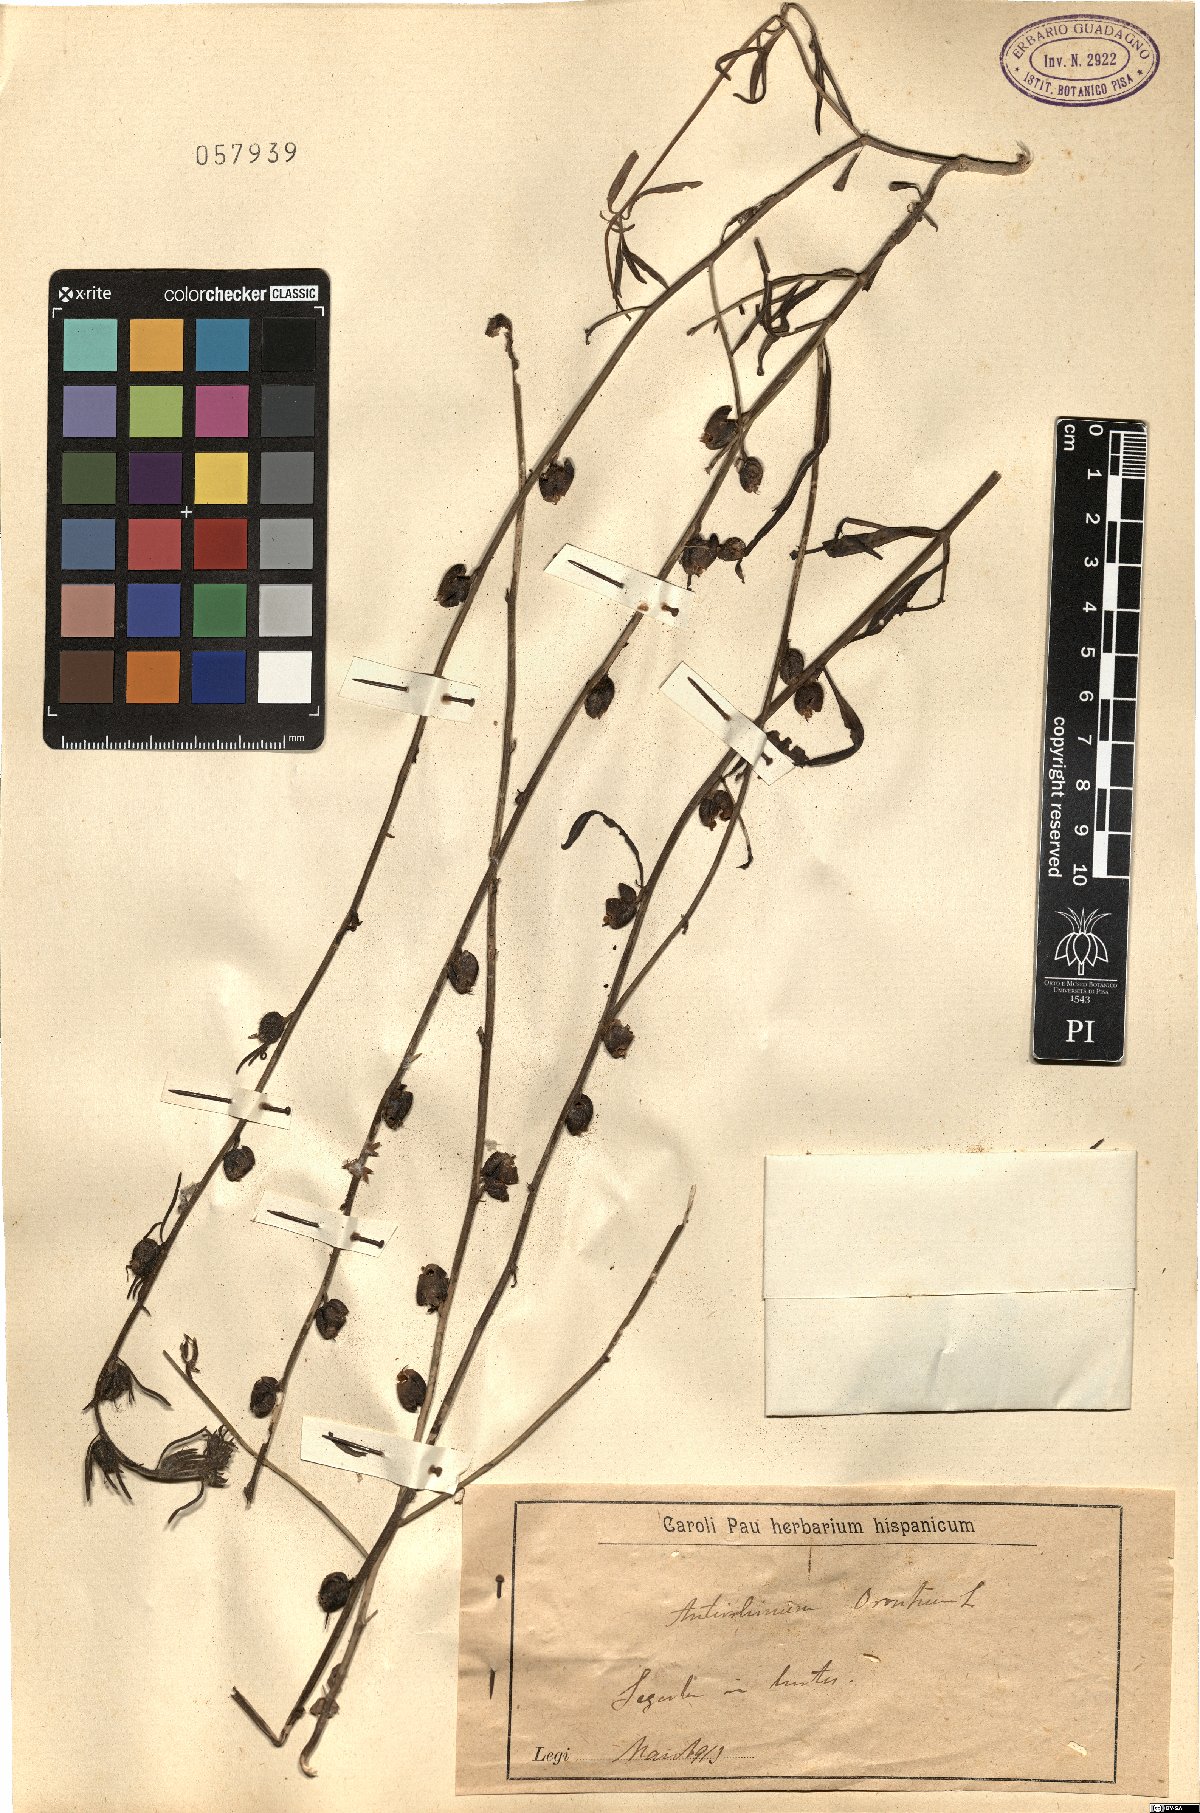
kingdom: Plantae
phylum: Tracheophyta
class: Magnoliopsida
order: Lamiales
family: Plantaginaceae
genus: Misopates
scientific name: Misopates orontium
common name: Weasel's-snout
